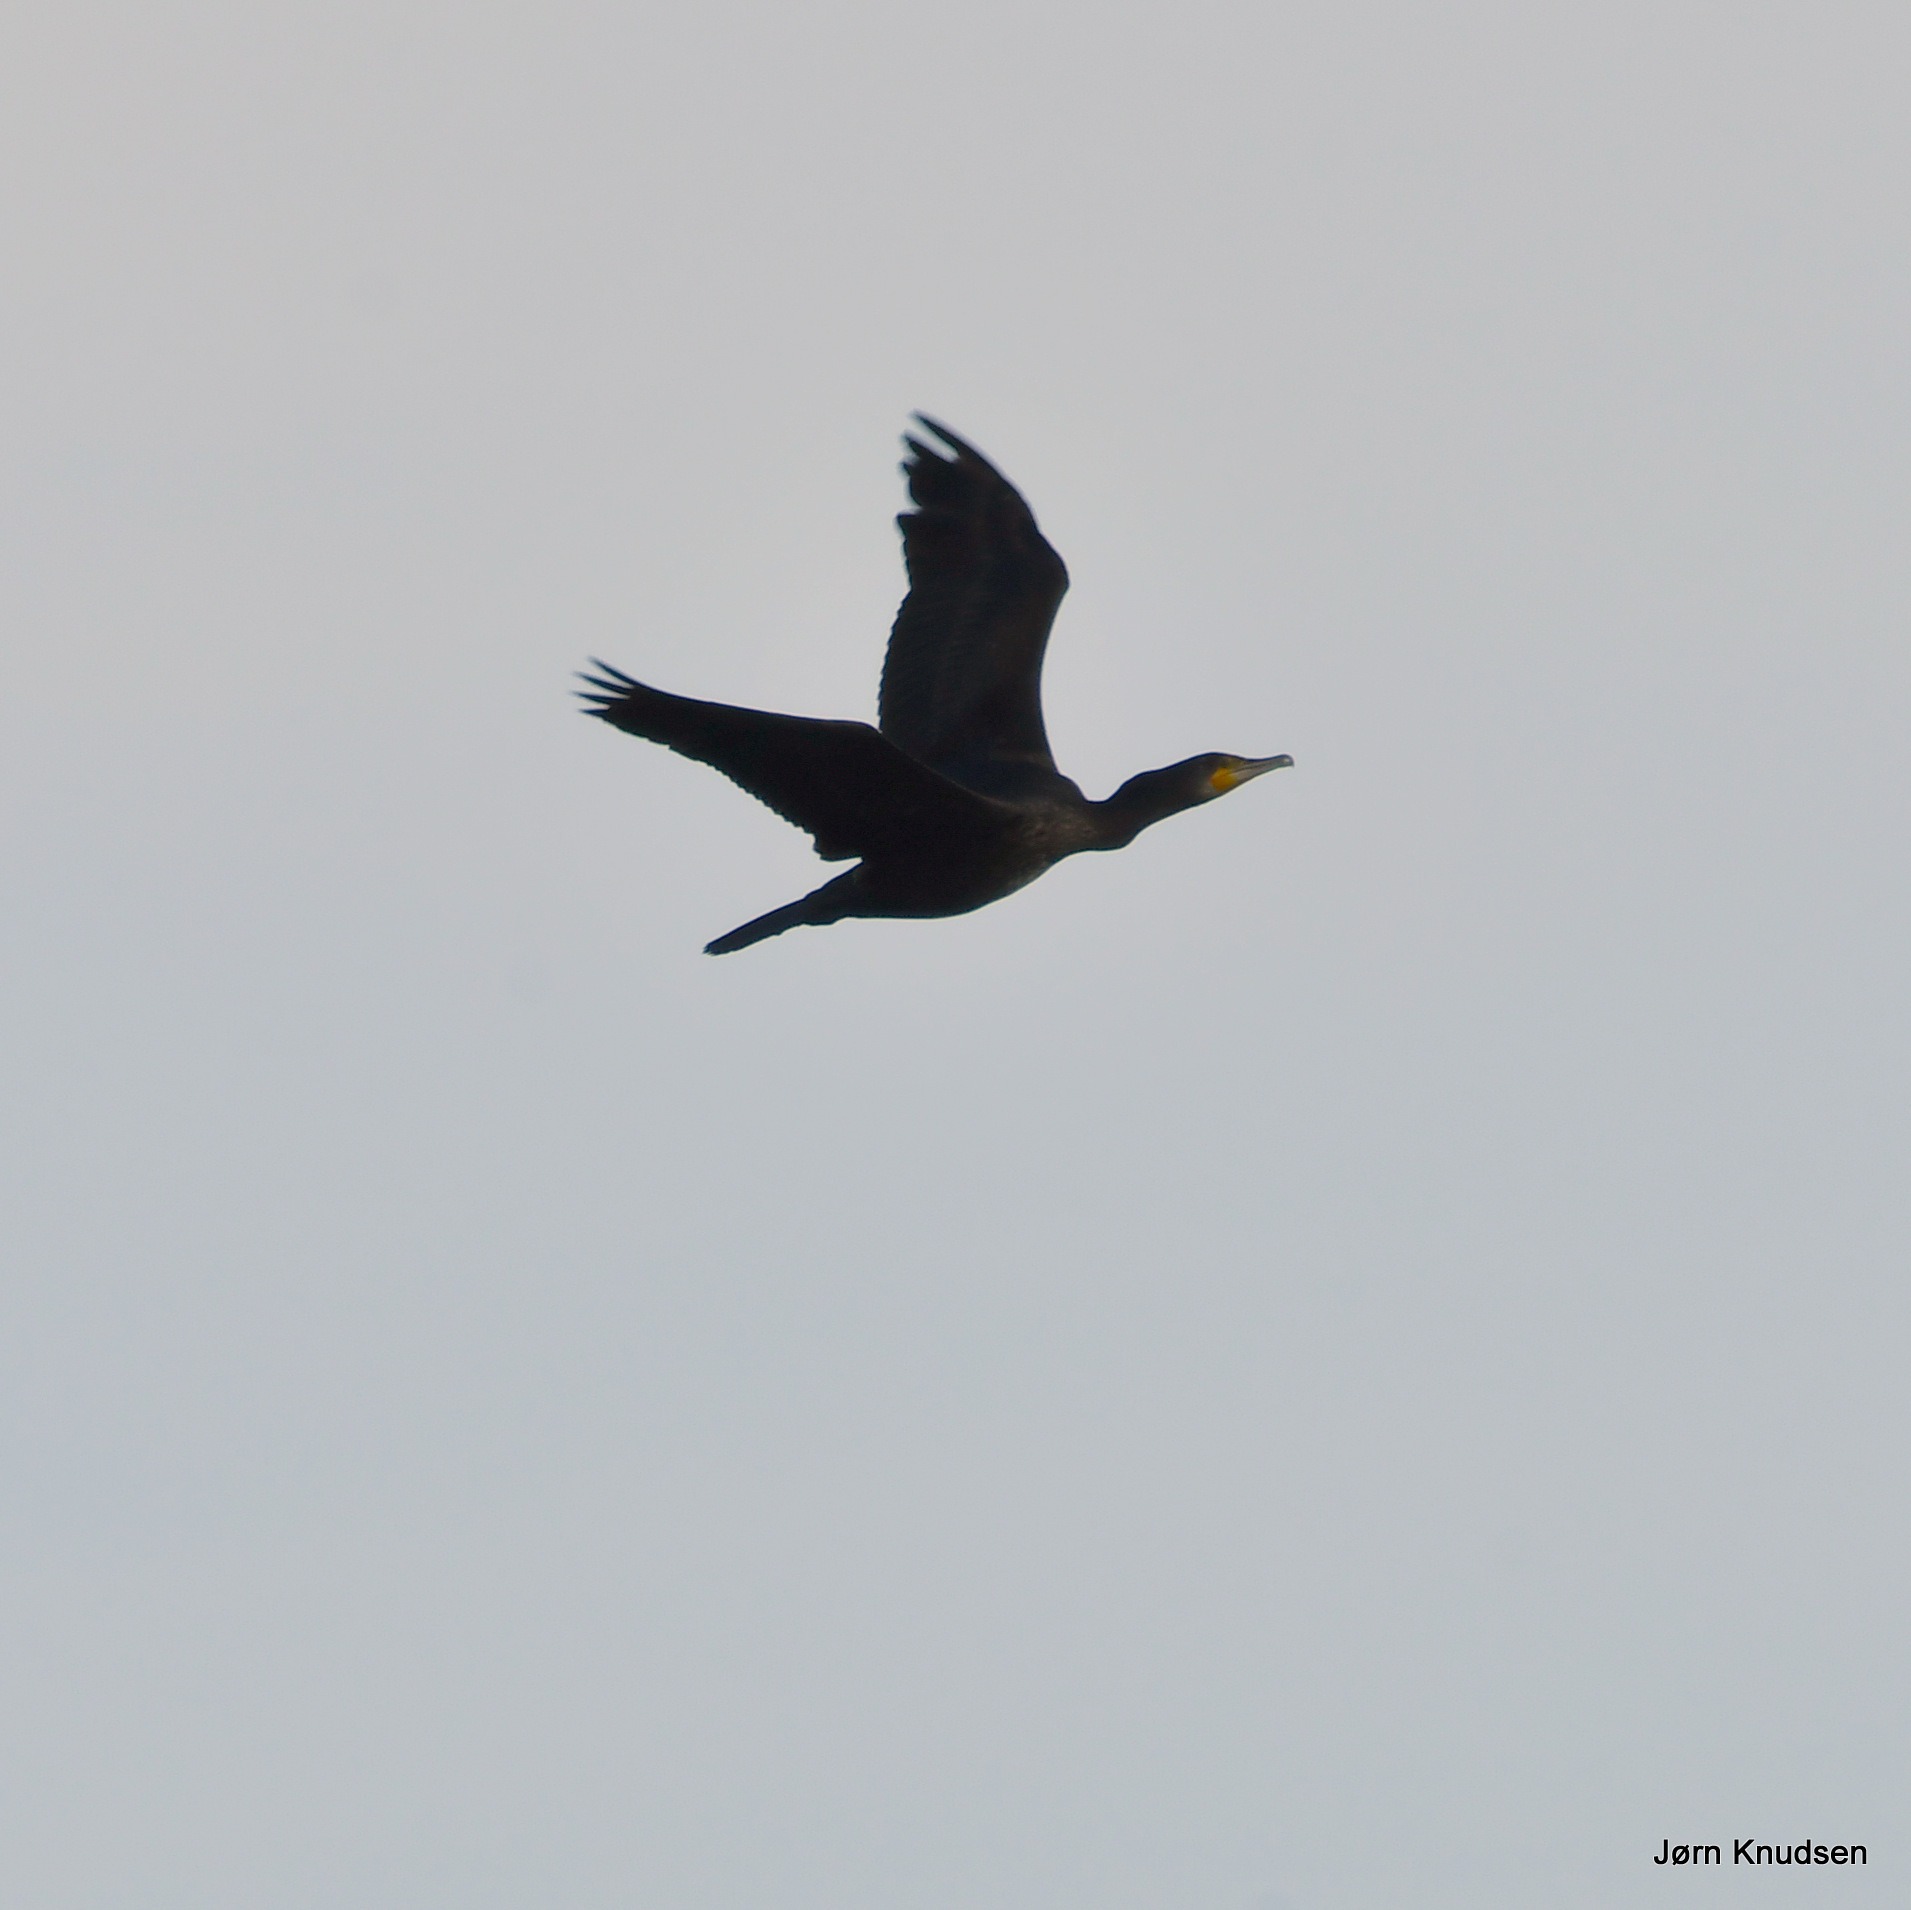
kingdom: Animalia
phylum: Chordata
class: Aves
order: Suliformes
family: Phalacrocoracidae
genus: Phalacrocorax
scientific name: Phalacrocorax carbo
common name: Skarv
